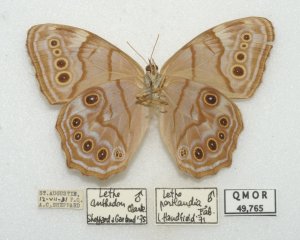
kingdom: Animalia
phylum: Arthropoda
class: Insecta
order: Lepidoptera
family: Nymphalidae
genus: Lethe
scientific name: Lethe anthedon
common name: Northern Pearly-Eye
